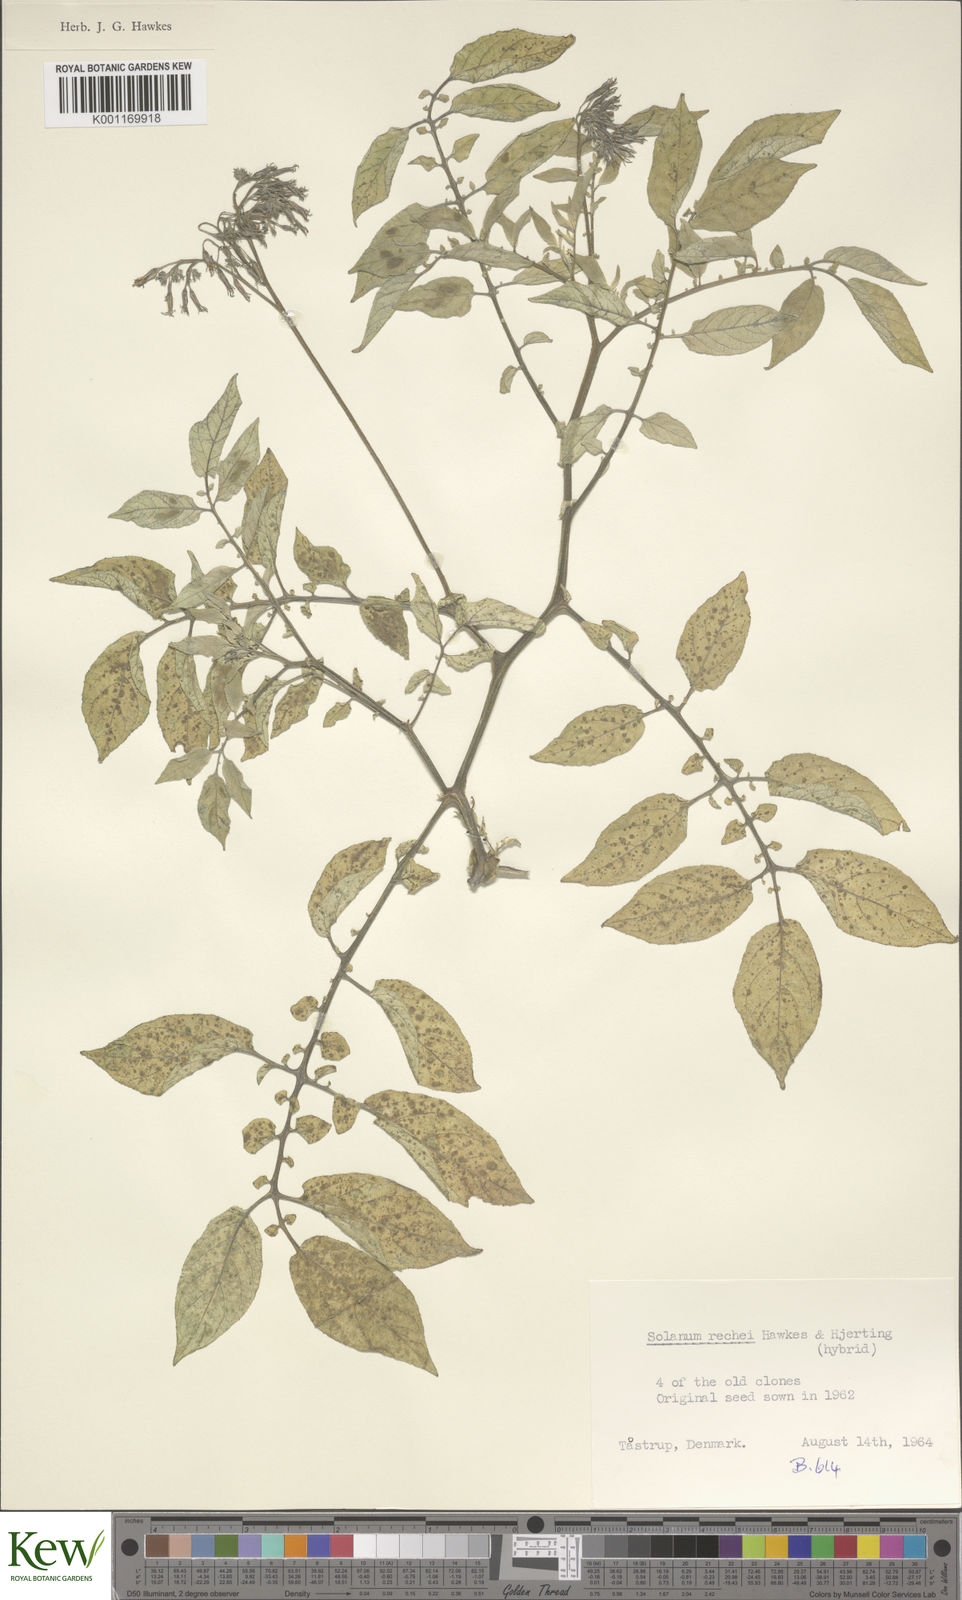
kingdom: Plantae
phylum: Tracheophyta
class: Magnoliopsida
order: Solanales
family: Solanaceae
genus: Solanum
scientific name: Solanum rechei
